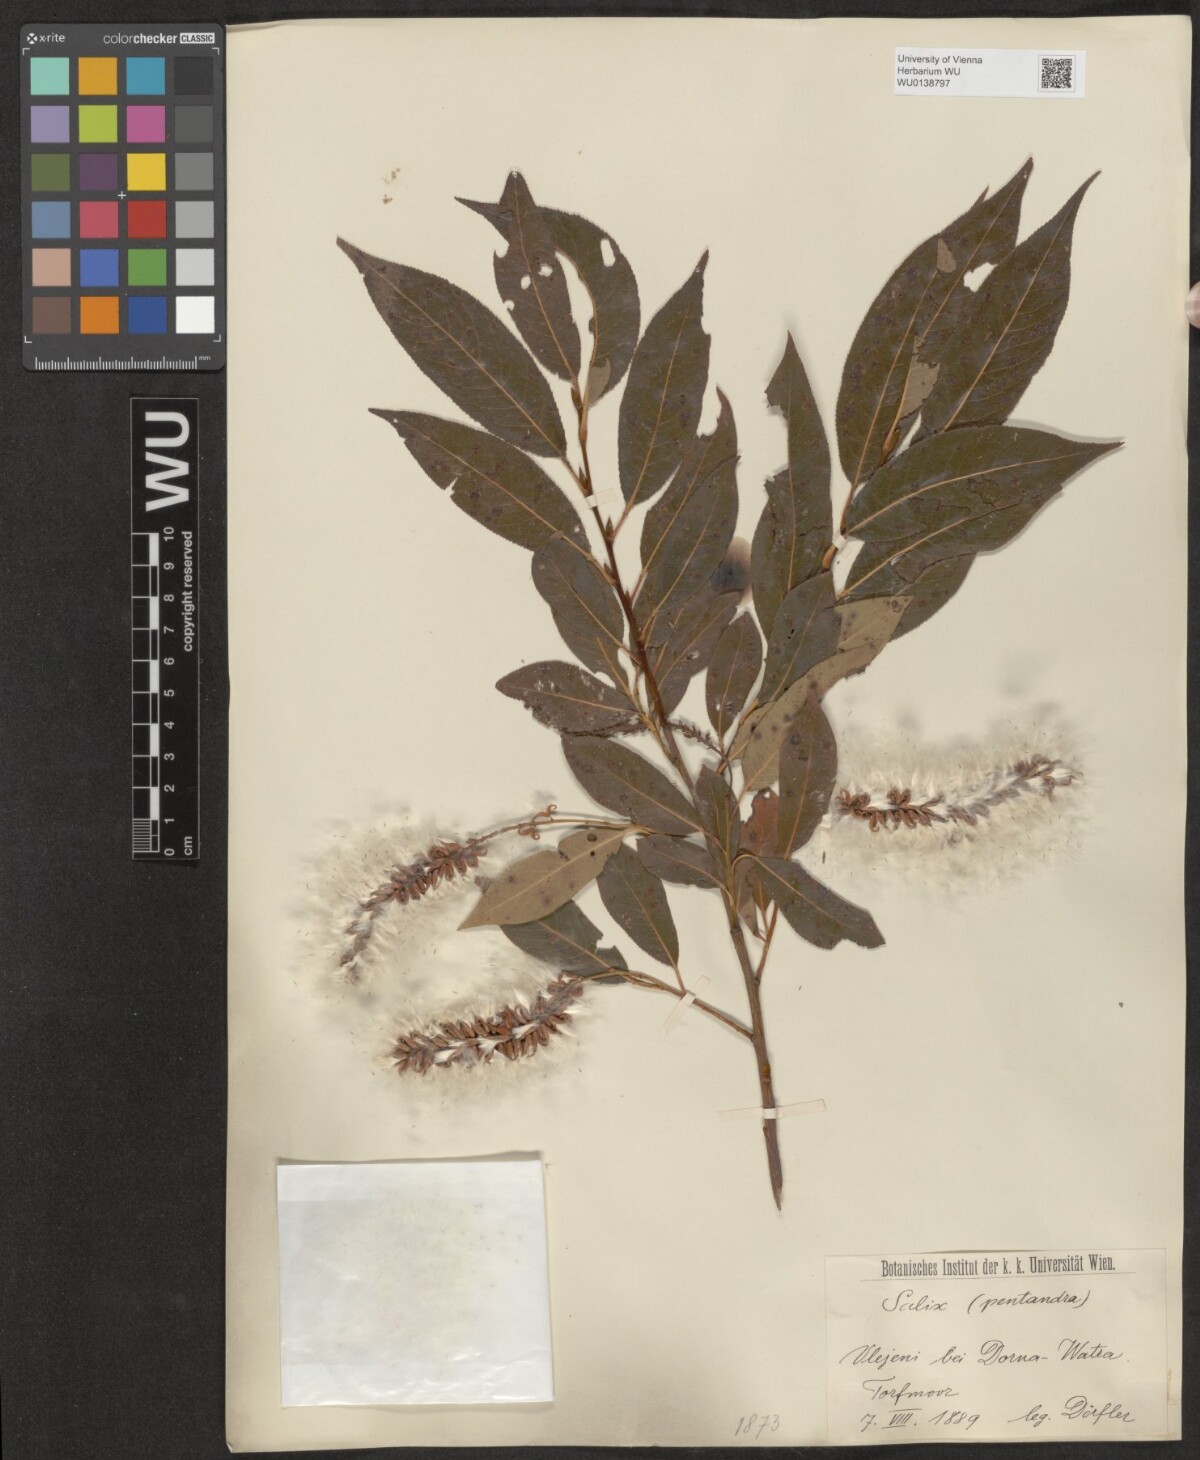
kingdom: Plantae
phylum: Tracheophyta
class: Magnoliopsida
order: Malpighiales
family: Salicaceae
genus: Salix
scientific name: Salix pentandra
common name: Bay willow
